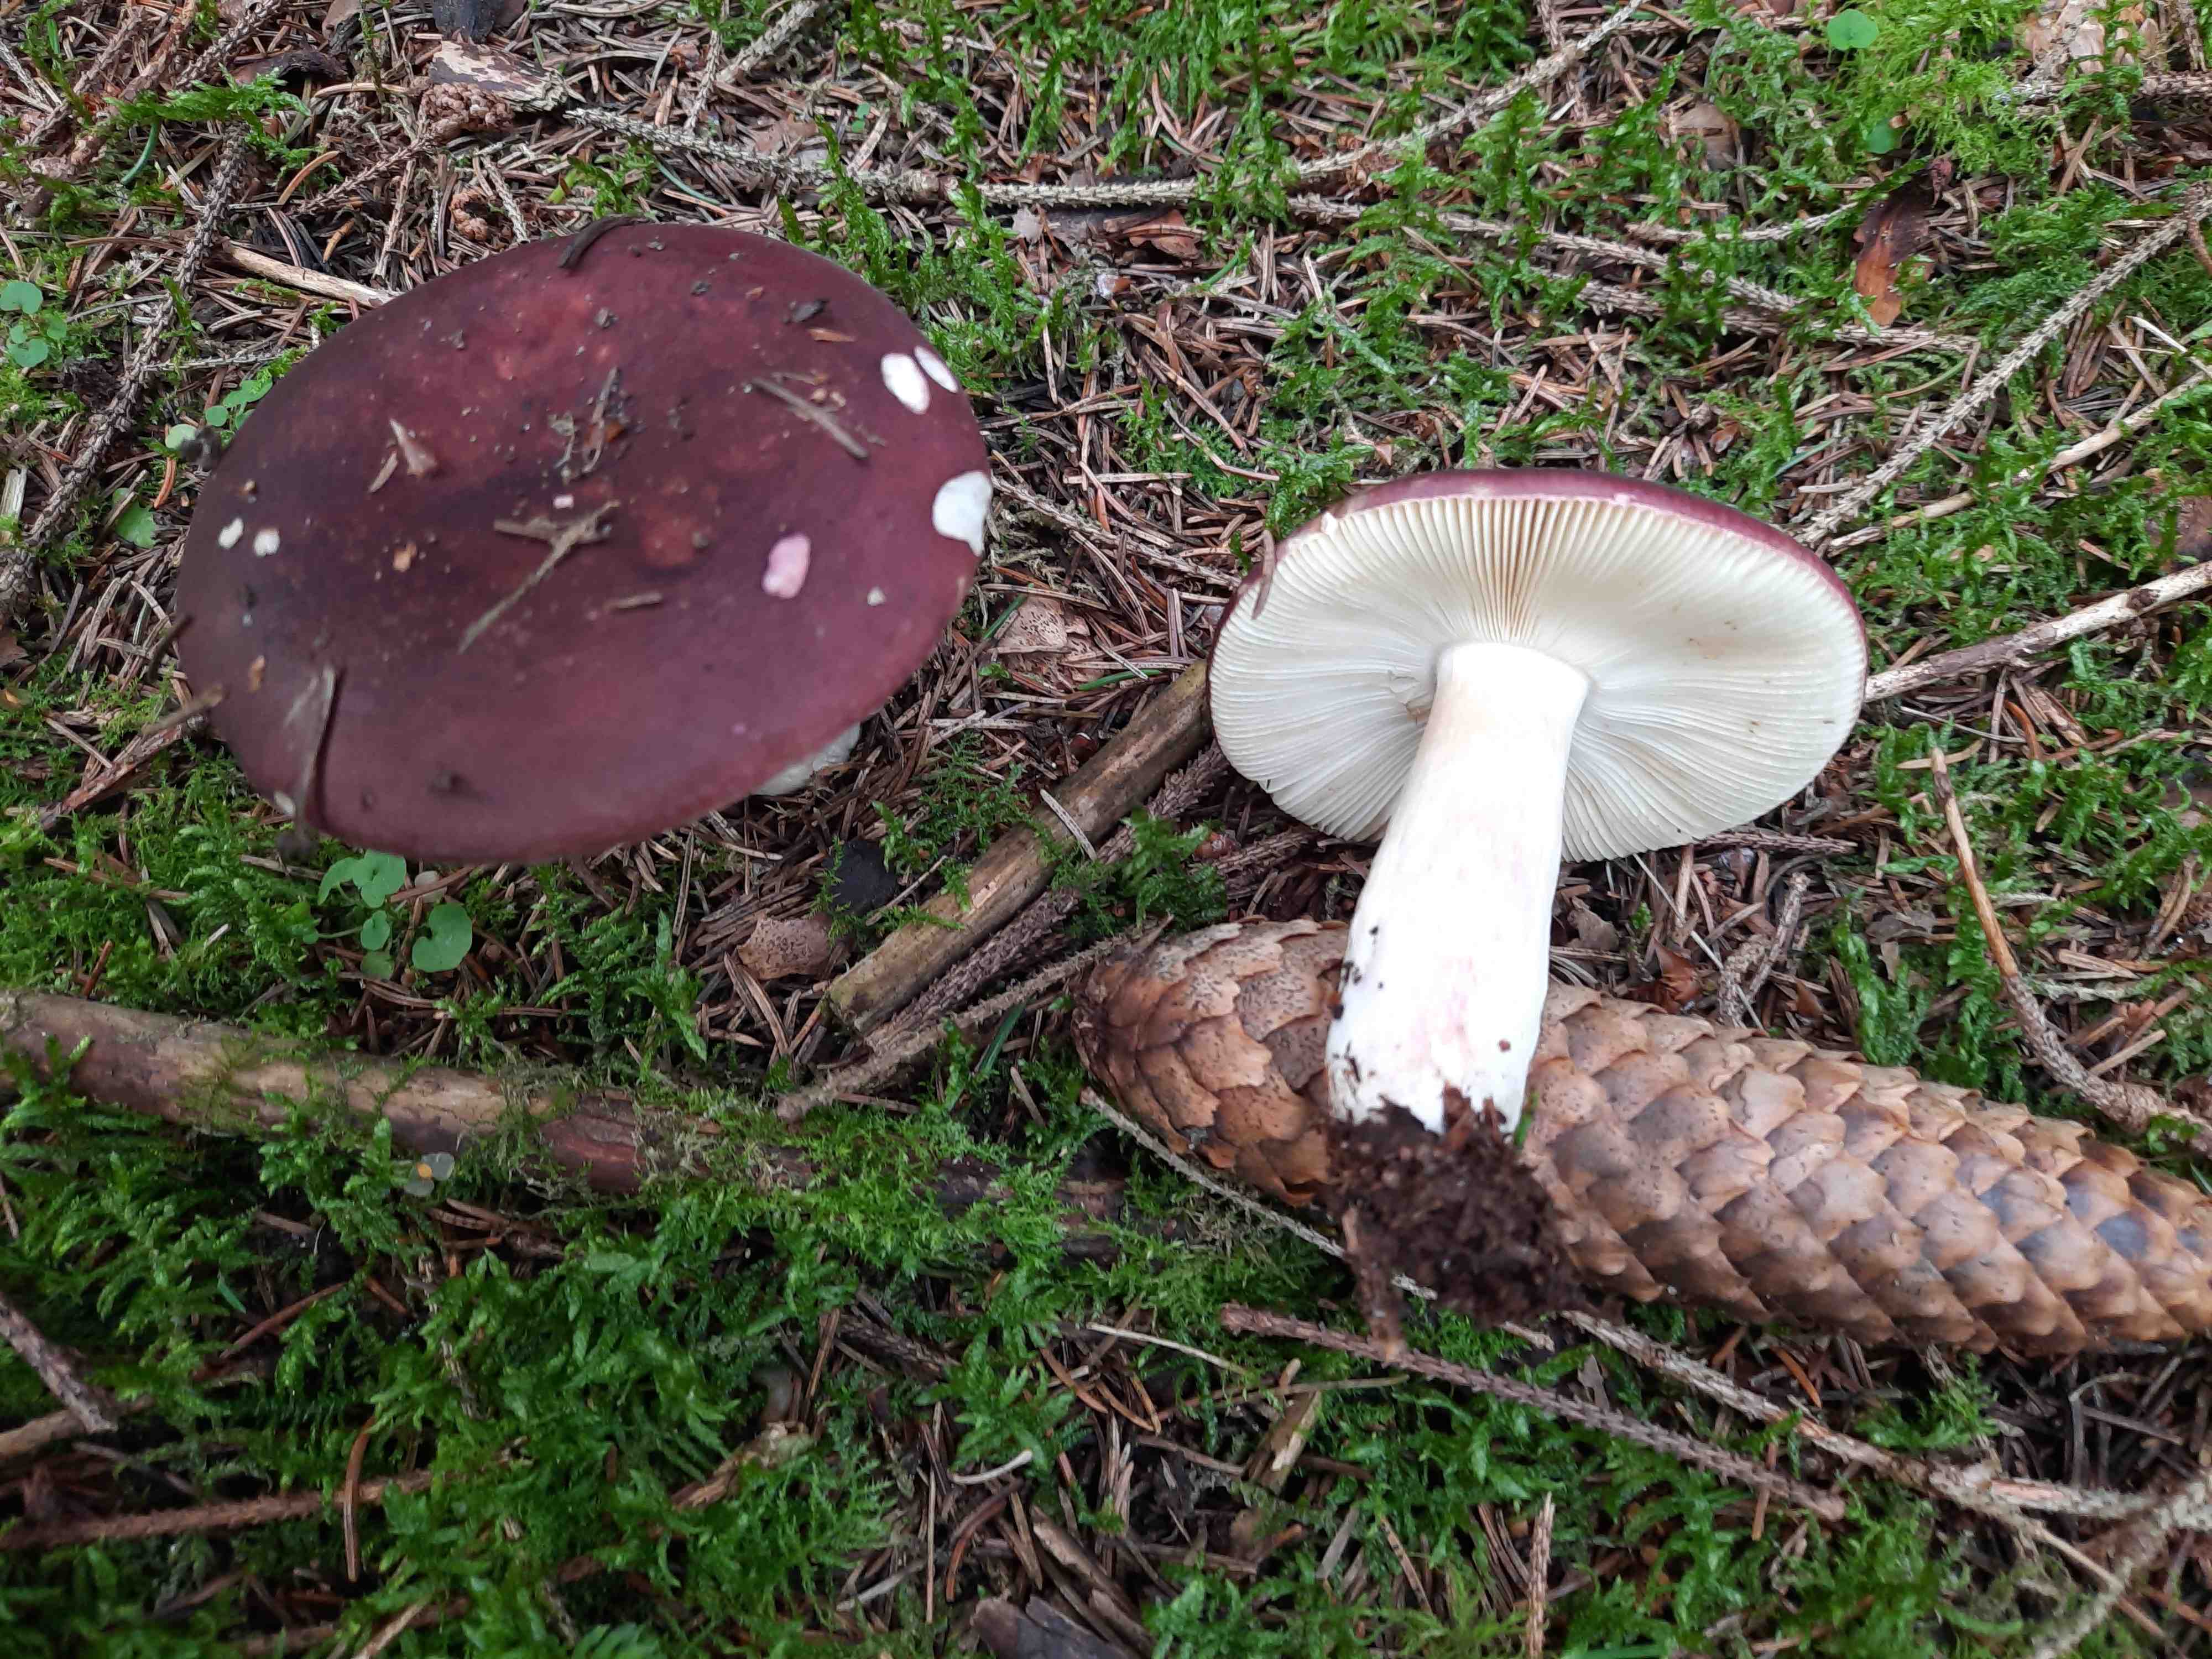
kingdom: Fungi
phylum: Basidiomycota
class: Agaricomycetes
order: Russulales
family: Russulaceae
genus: Russula
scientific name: Russula xerampelina
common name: hummer-skørhat
